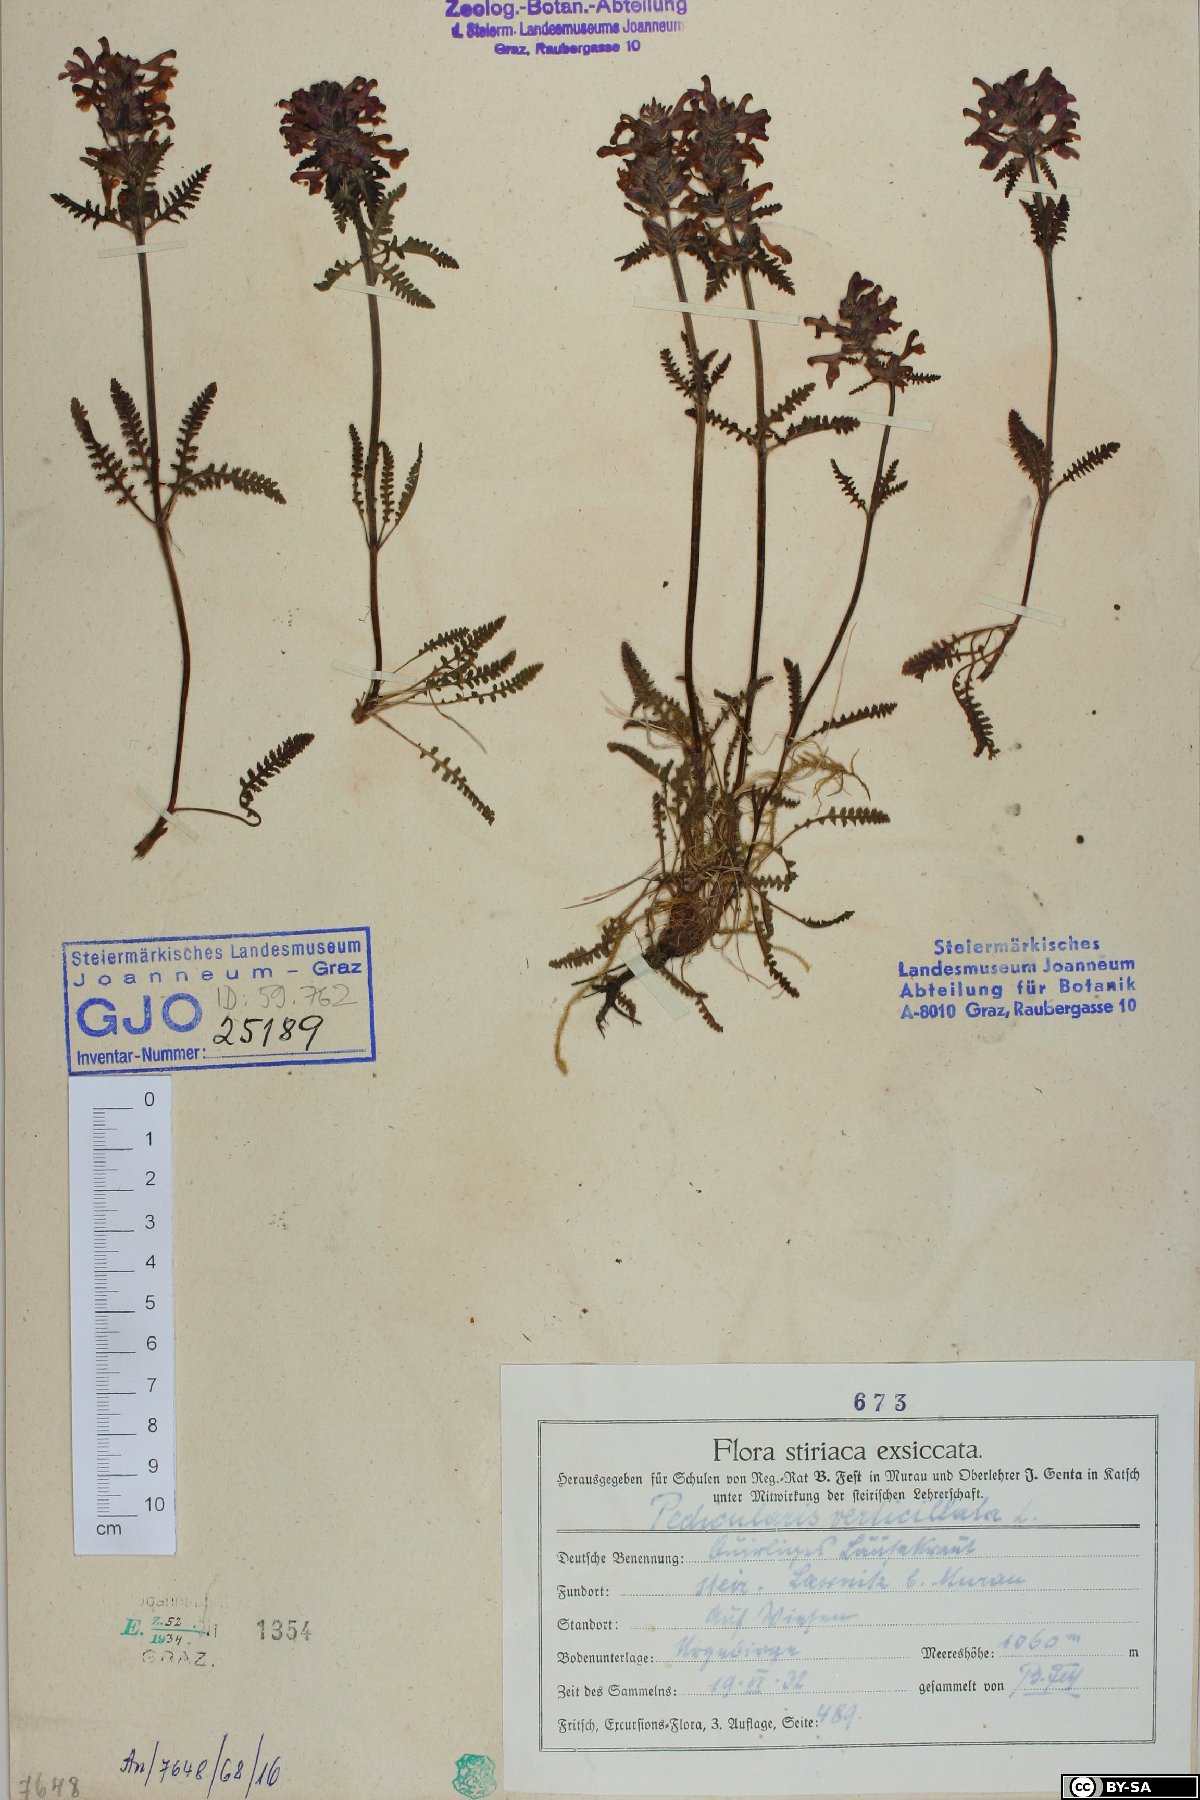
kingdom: Plantae
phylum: Tracheophyta
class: Magnoliopsida
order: Lamiales
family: Orobanchaceae
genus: Pedicularis
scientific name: Pedicularis verticillata
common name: Whorled lousewort
